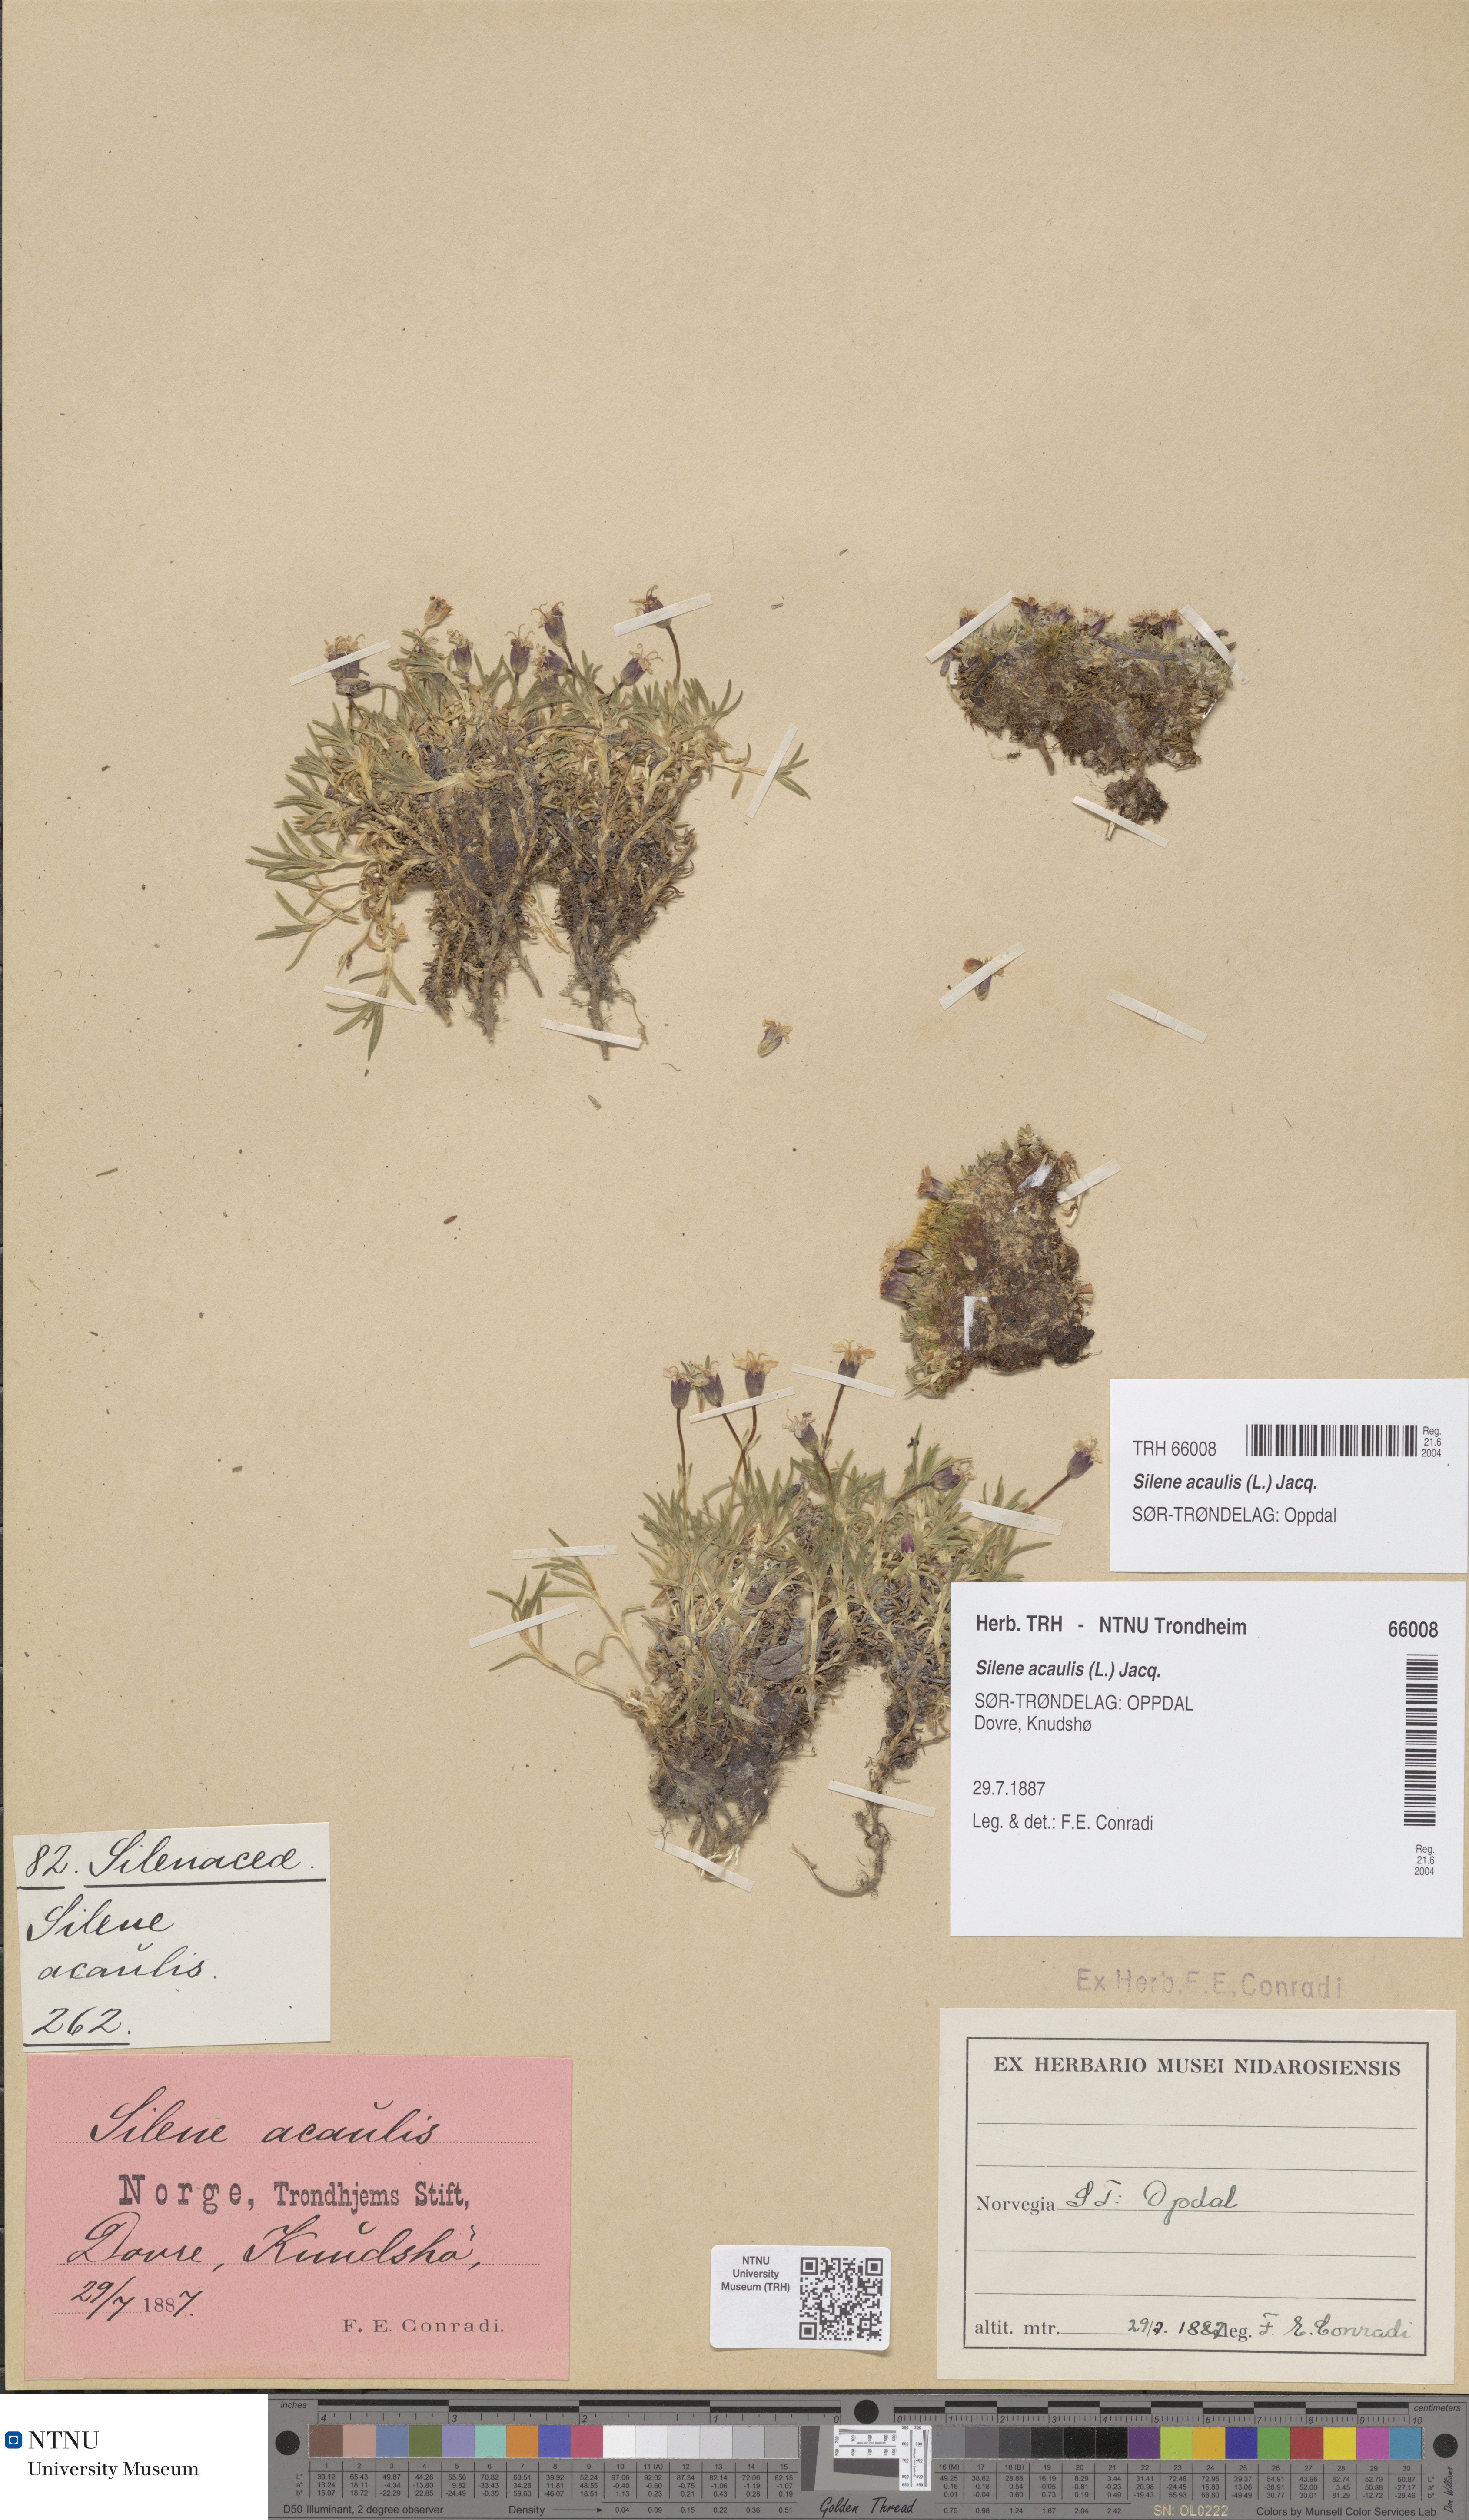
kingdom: Plantae
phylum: Tracheophyta
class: Magnoliopsida
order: Caryophyllales
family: Caryophyllaceae
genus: Silene
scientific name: Silene acaulis
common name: Moss campion
